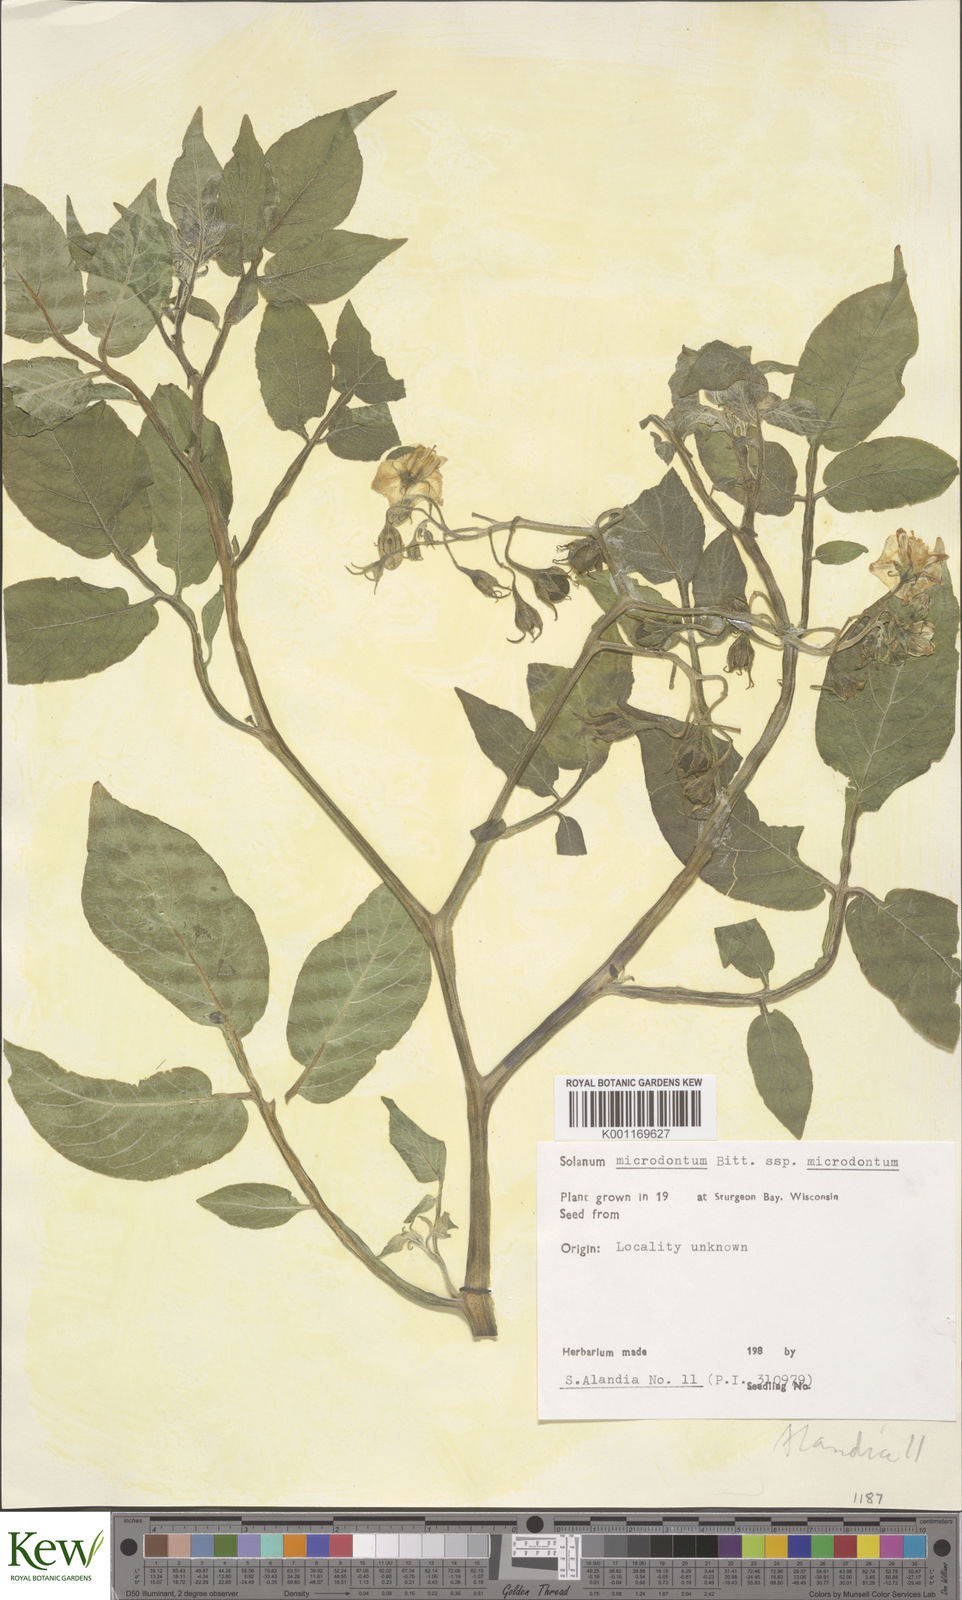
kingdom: Plantae
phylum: Tracheophyta
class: Magnoliopsida
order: Solanales
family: Solanaceae
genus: Solanum
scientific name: Solanum microdontum
